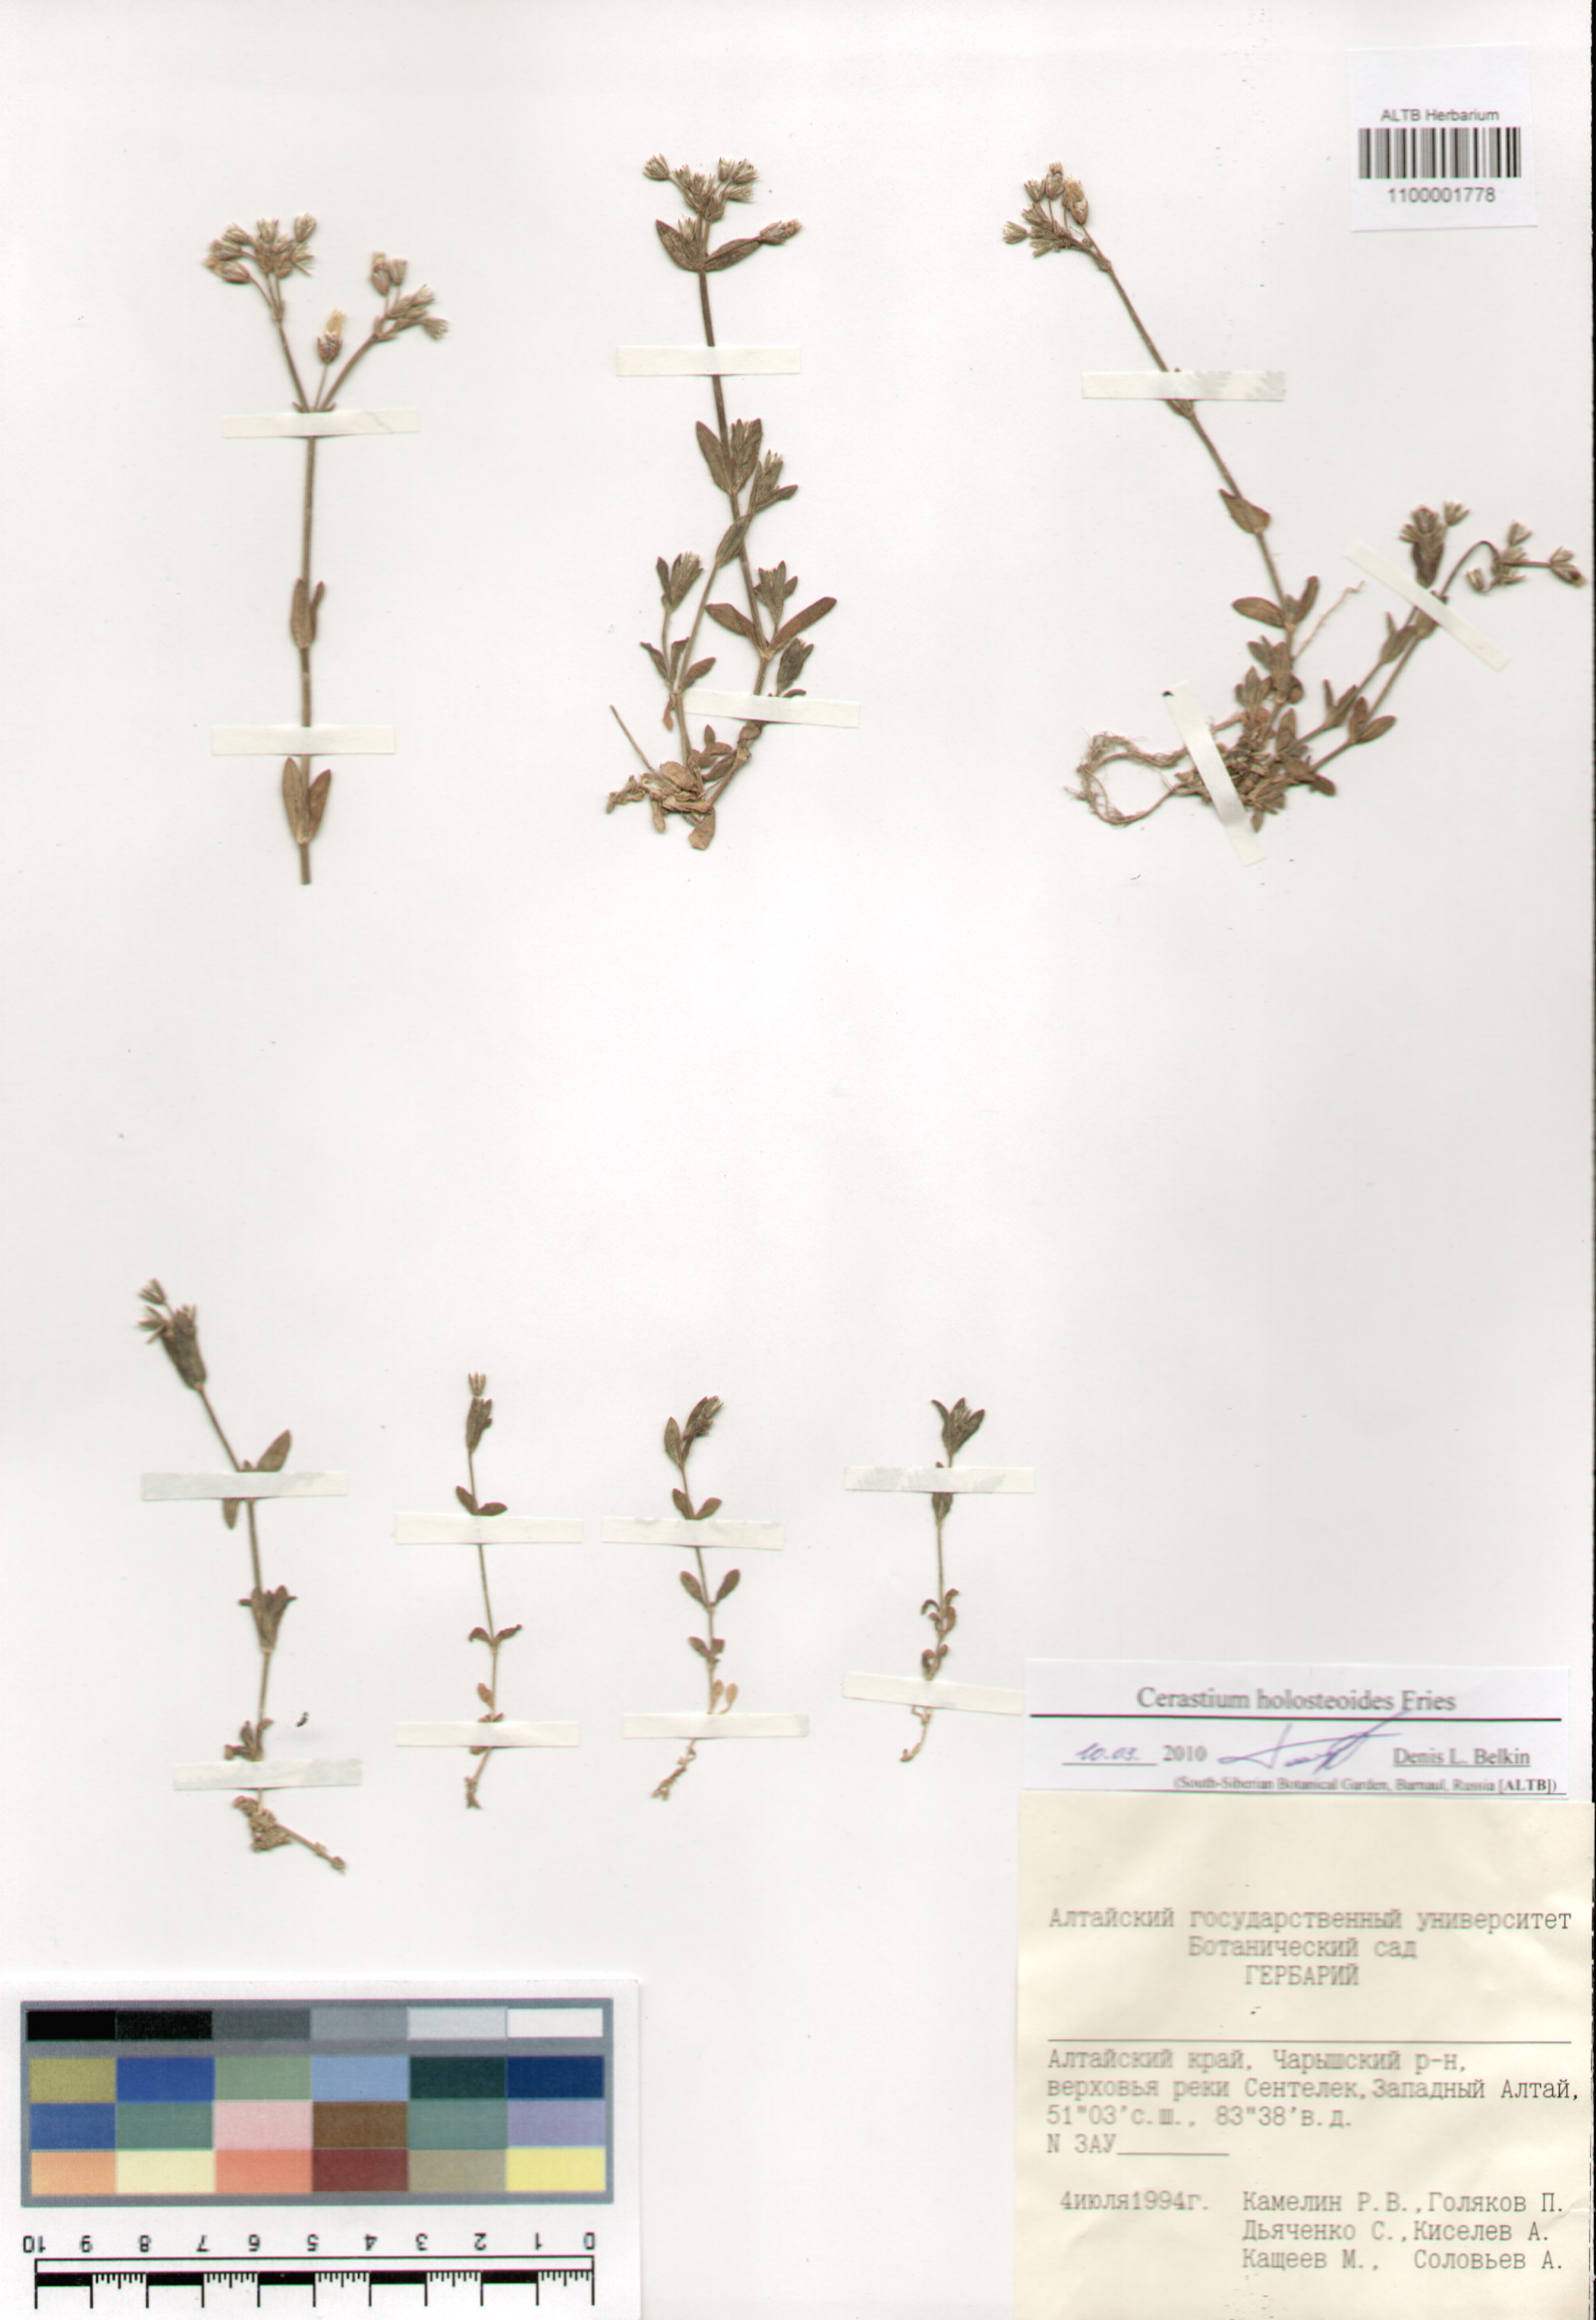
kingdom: Plantae
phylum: Tracheophyta
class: Magnoliopsida
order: Caryophyllales
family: Caryophyllaceae
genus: Cerastium
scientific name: Cerastium holosteoides
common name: Big chickweed
